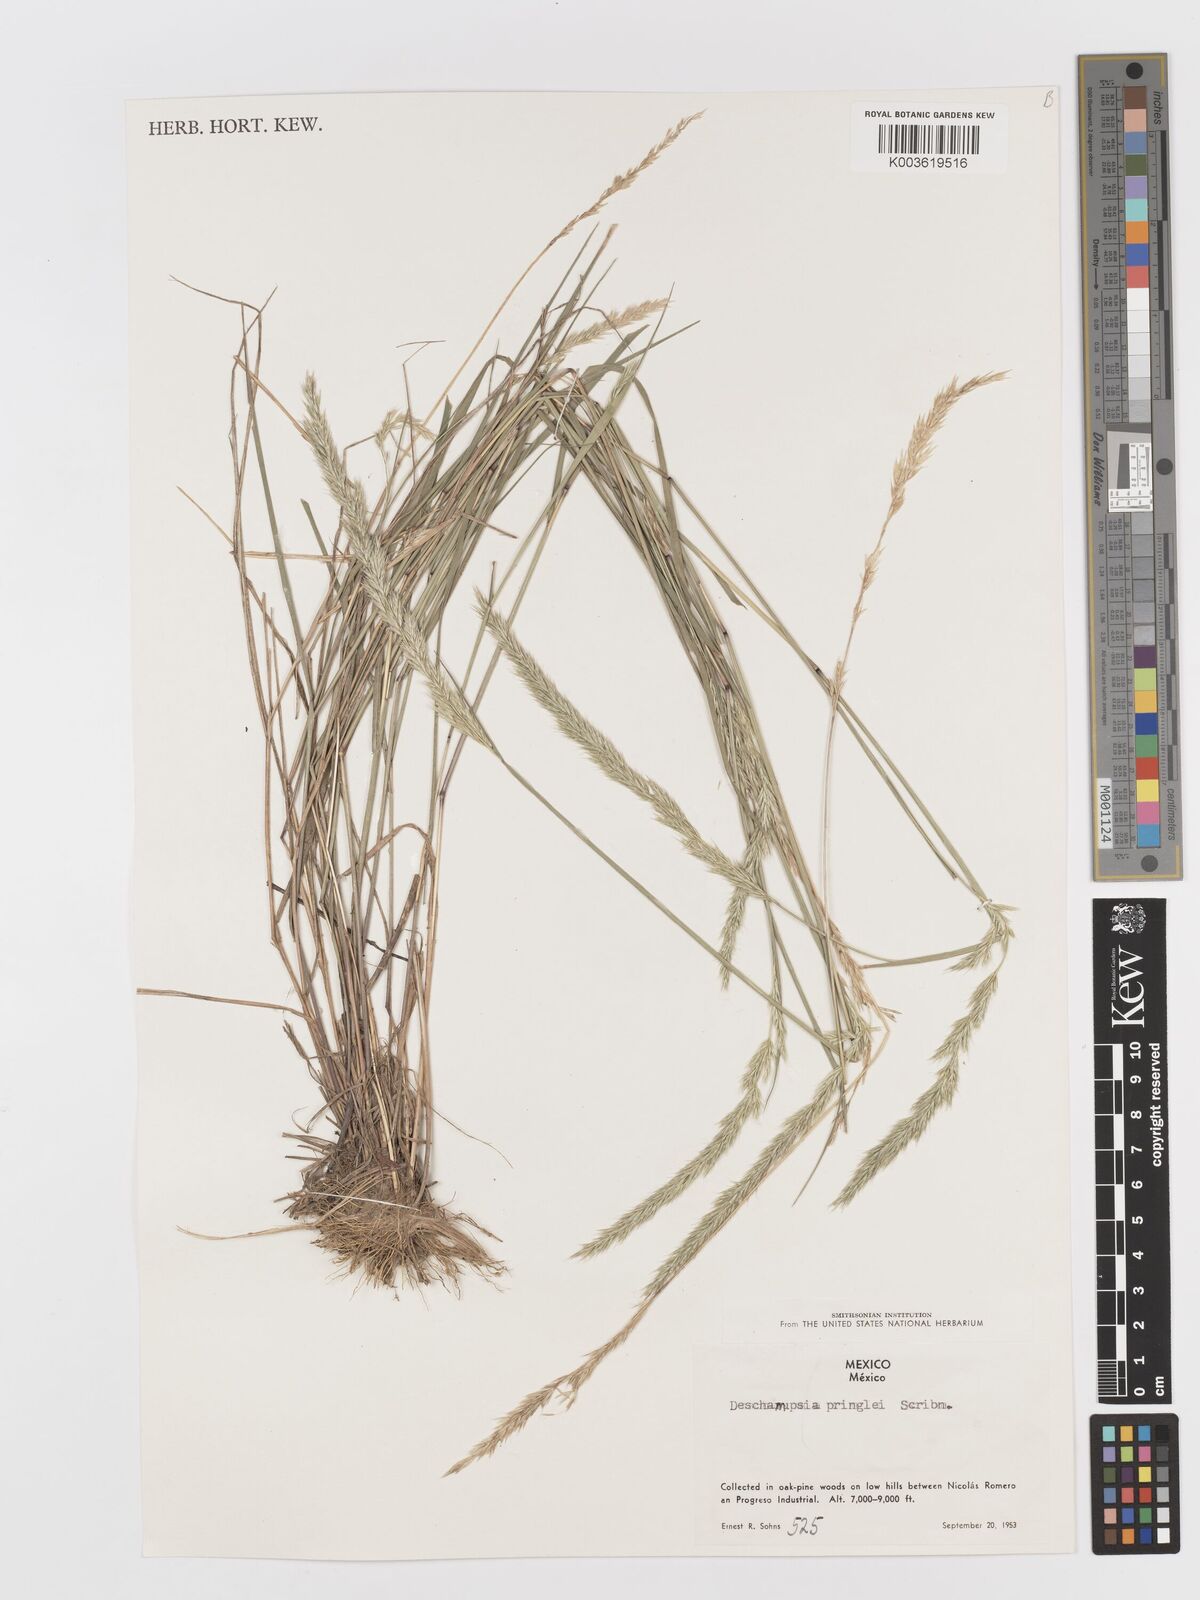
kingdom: Plantae
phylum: Tracheophyta
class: Liliopsida
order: Poales
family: Poaceae
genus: Peyritschia
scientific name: Peyritschia pringlei
